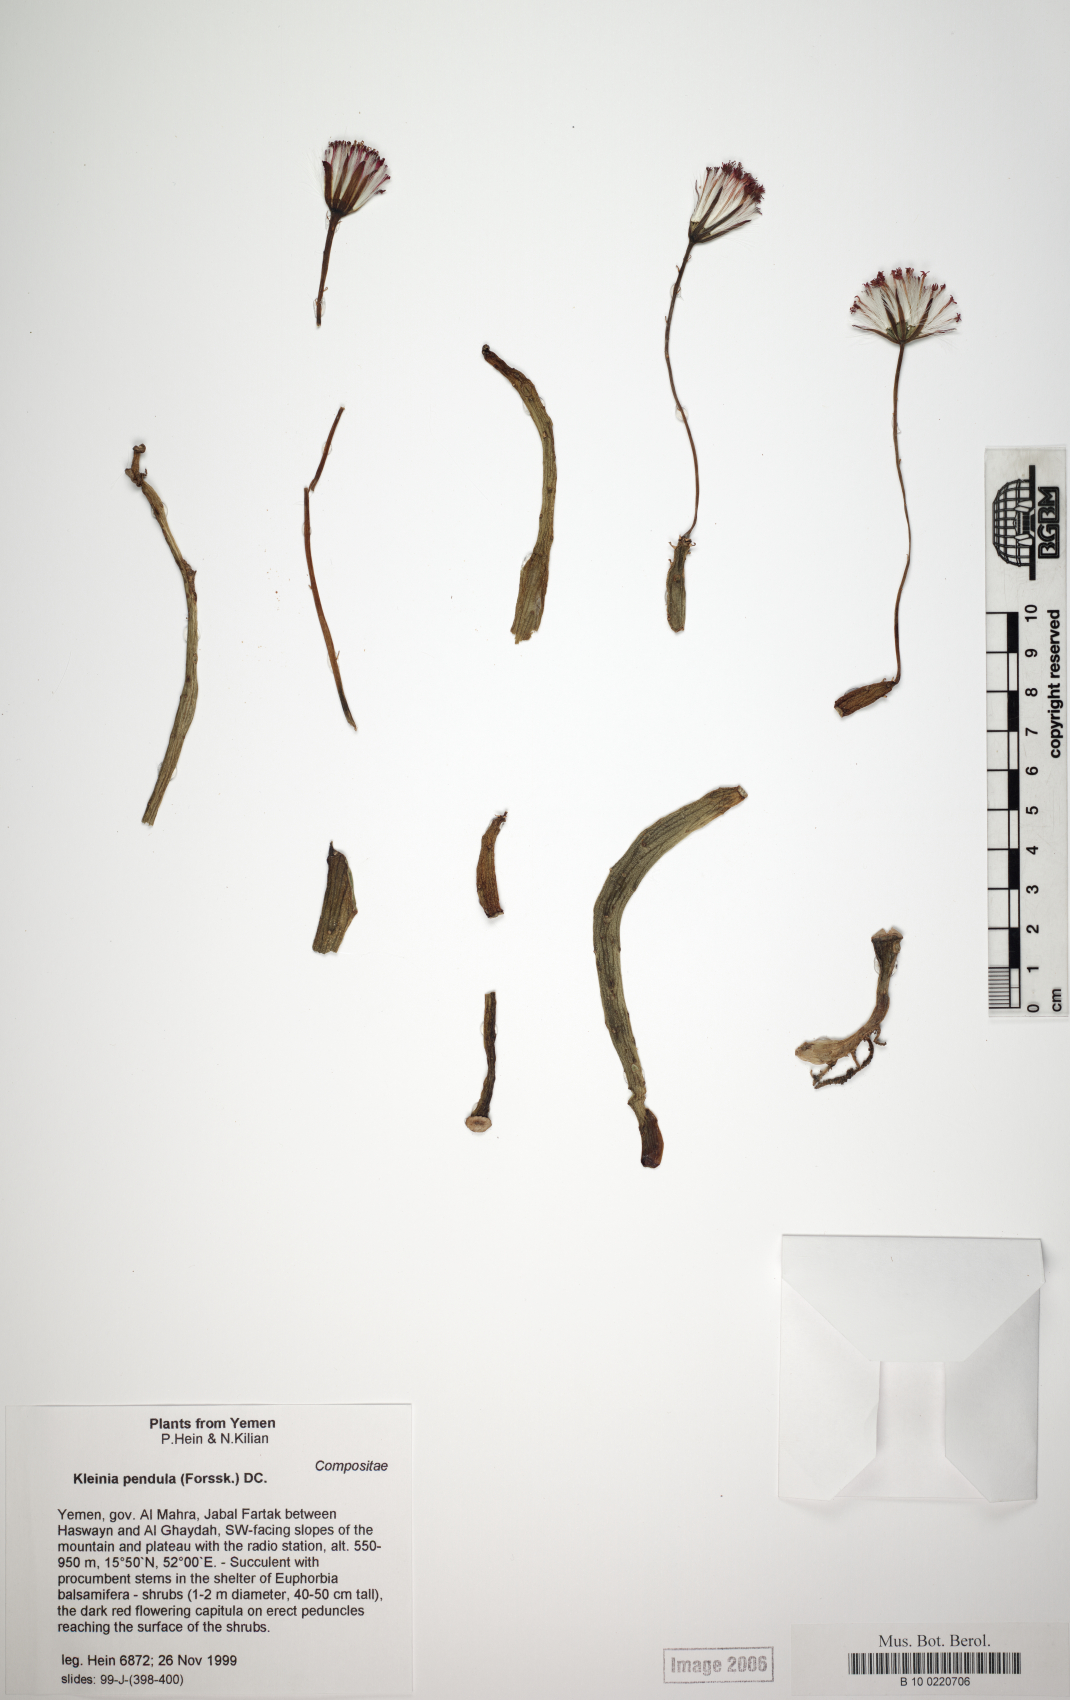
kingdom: Plantae
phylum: Tracheophyta
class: Magnoliopsida
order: Asterales
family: Asteraceae
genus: Kleinia
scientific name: Kleinia pendula
